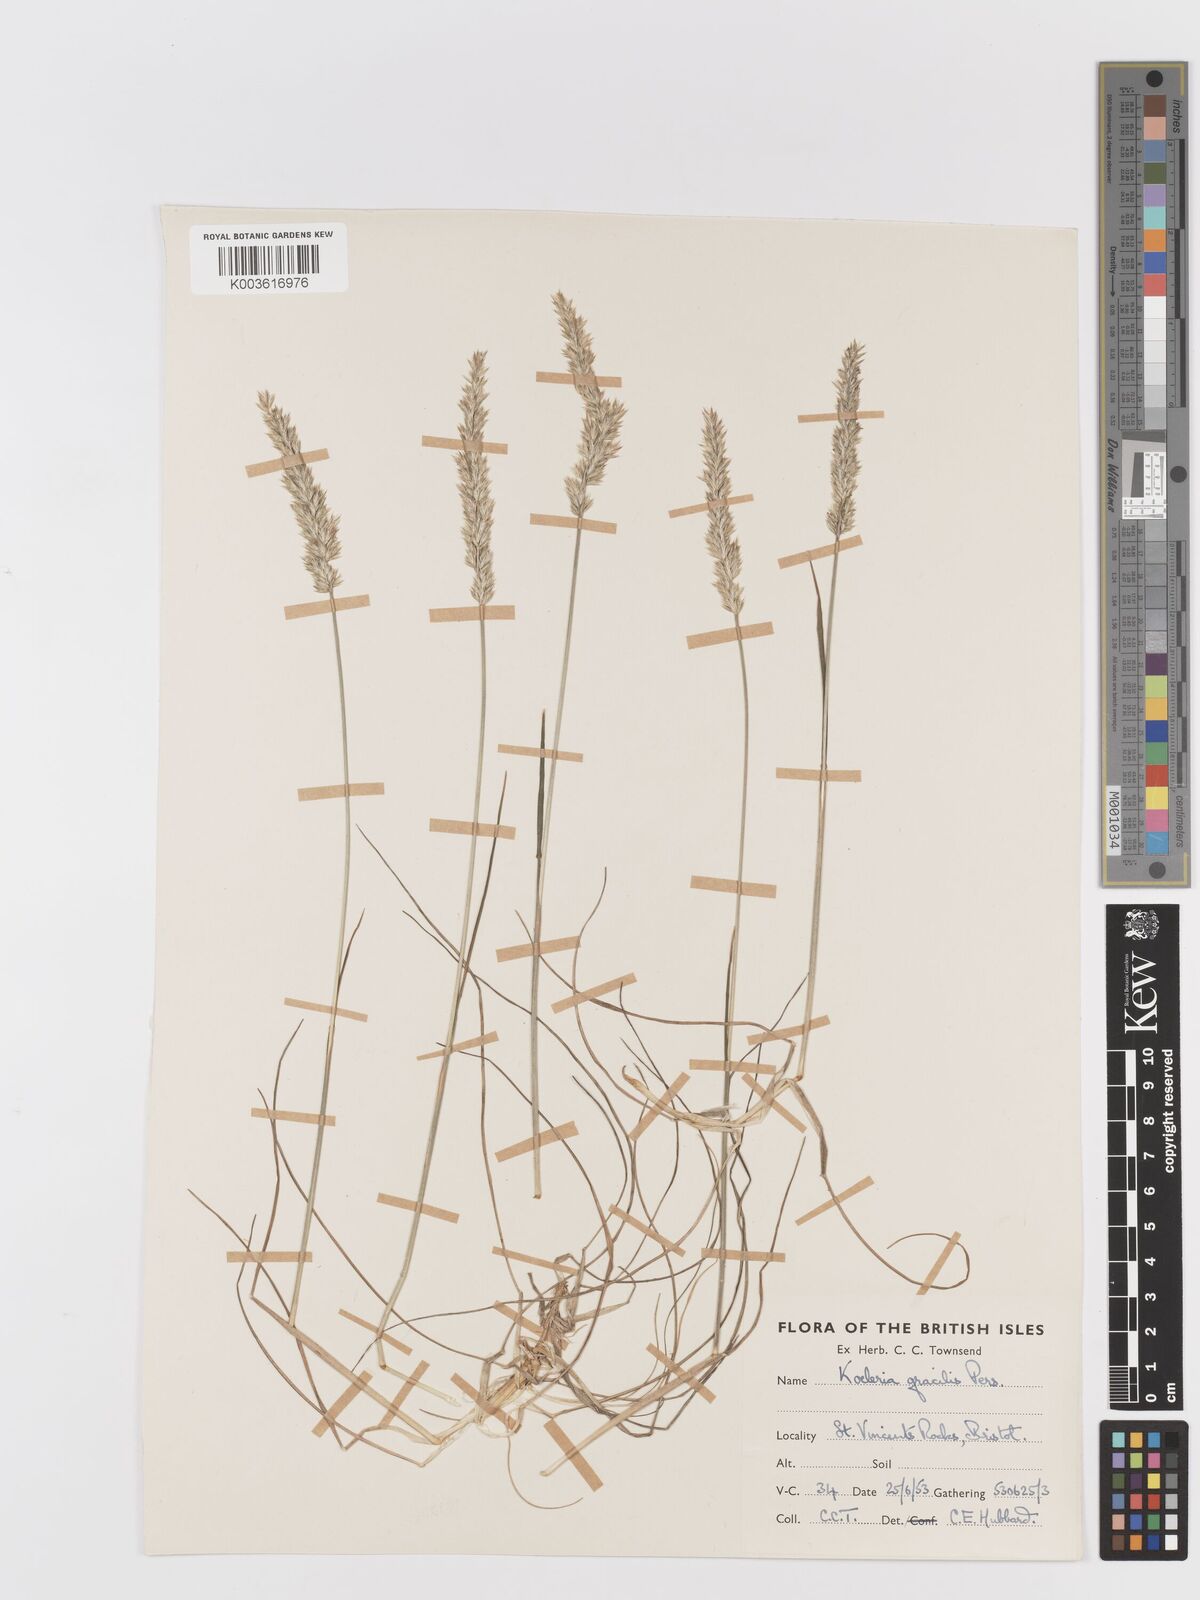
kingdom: Plantae
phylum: Tracheophyta
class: Liliopsida
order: Poales
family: Poaceae
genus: Koeleria
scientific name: Koeleria macrantha
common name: Crested hair-grass
